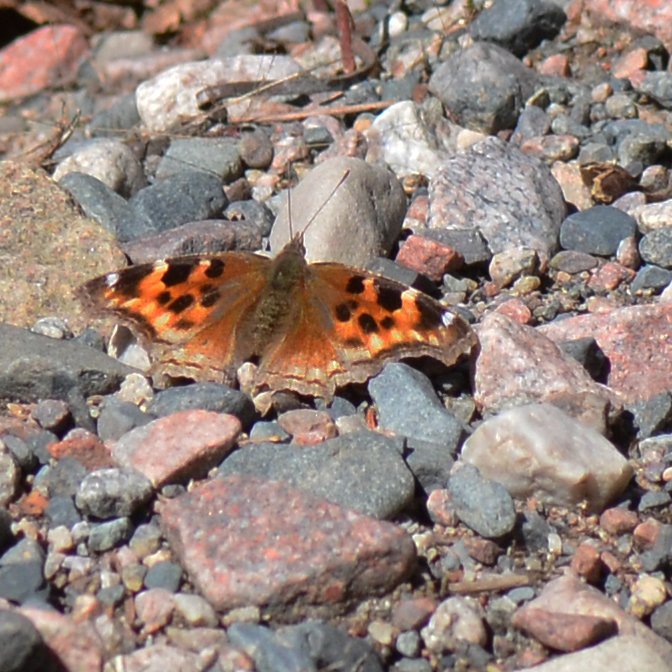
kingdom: Animalia
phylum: Arthropoda
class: Insecta
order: Lepidoptera
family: Nymphalidae
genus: Polygonia
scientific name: Polygonia vaualbum
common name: Compton Tortoiseshell
